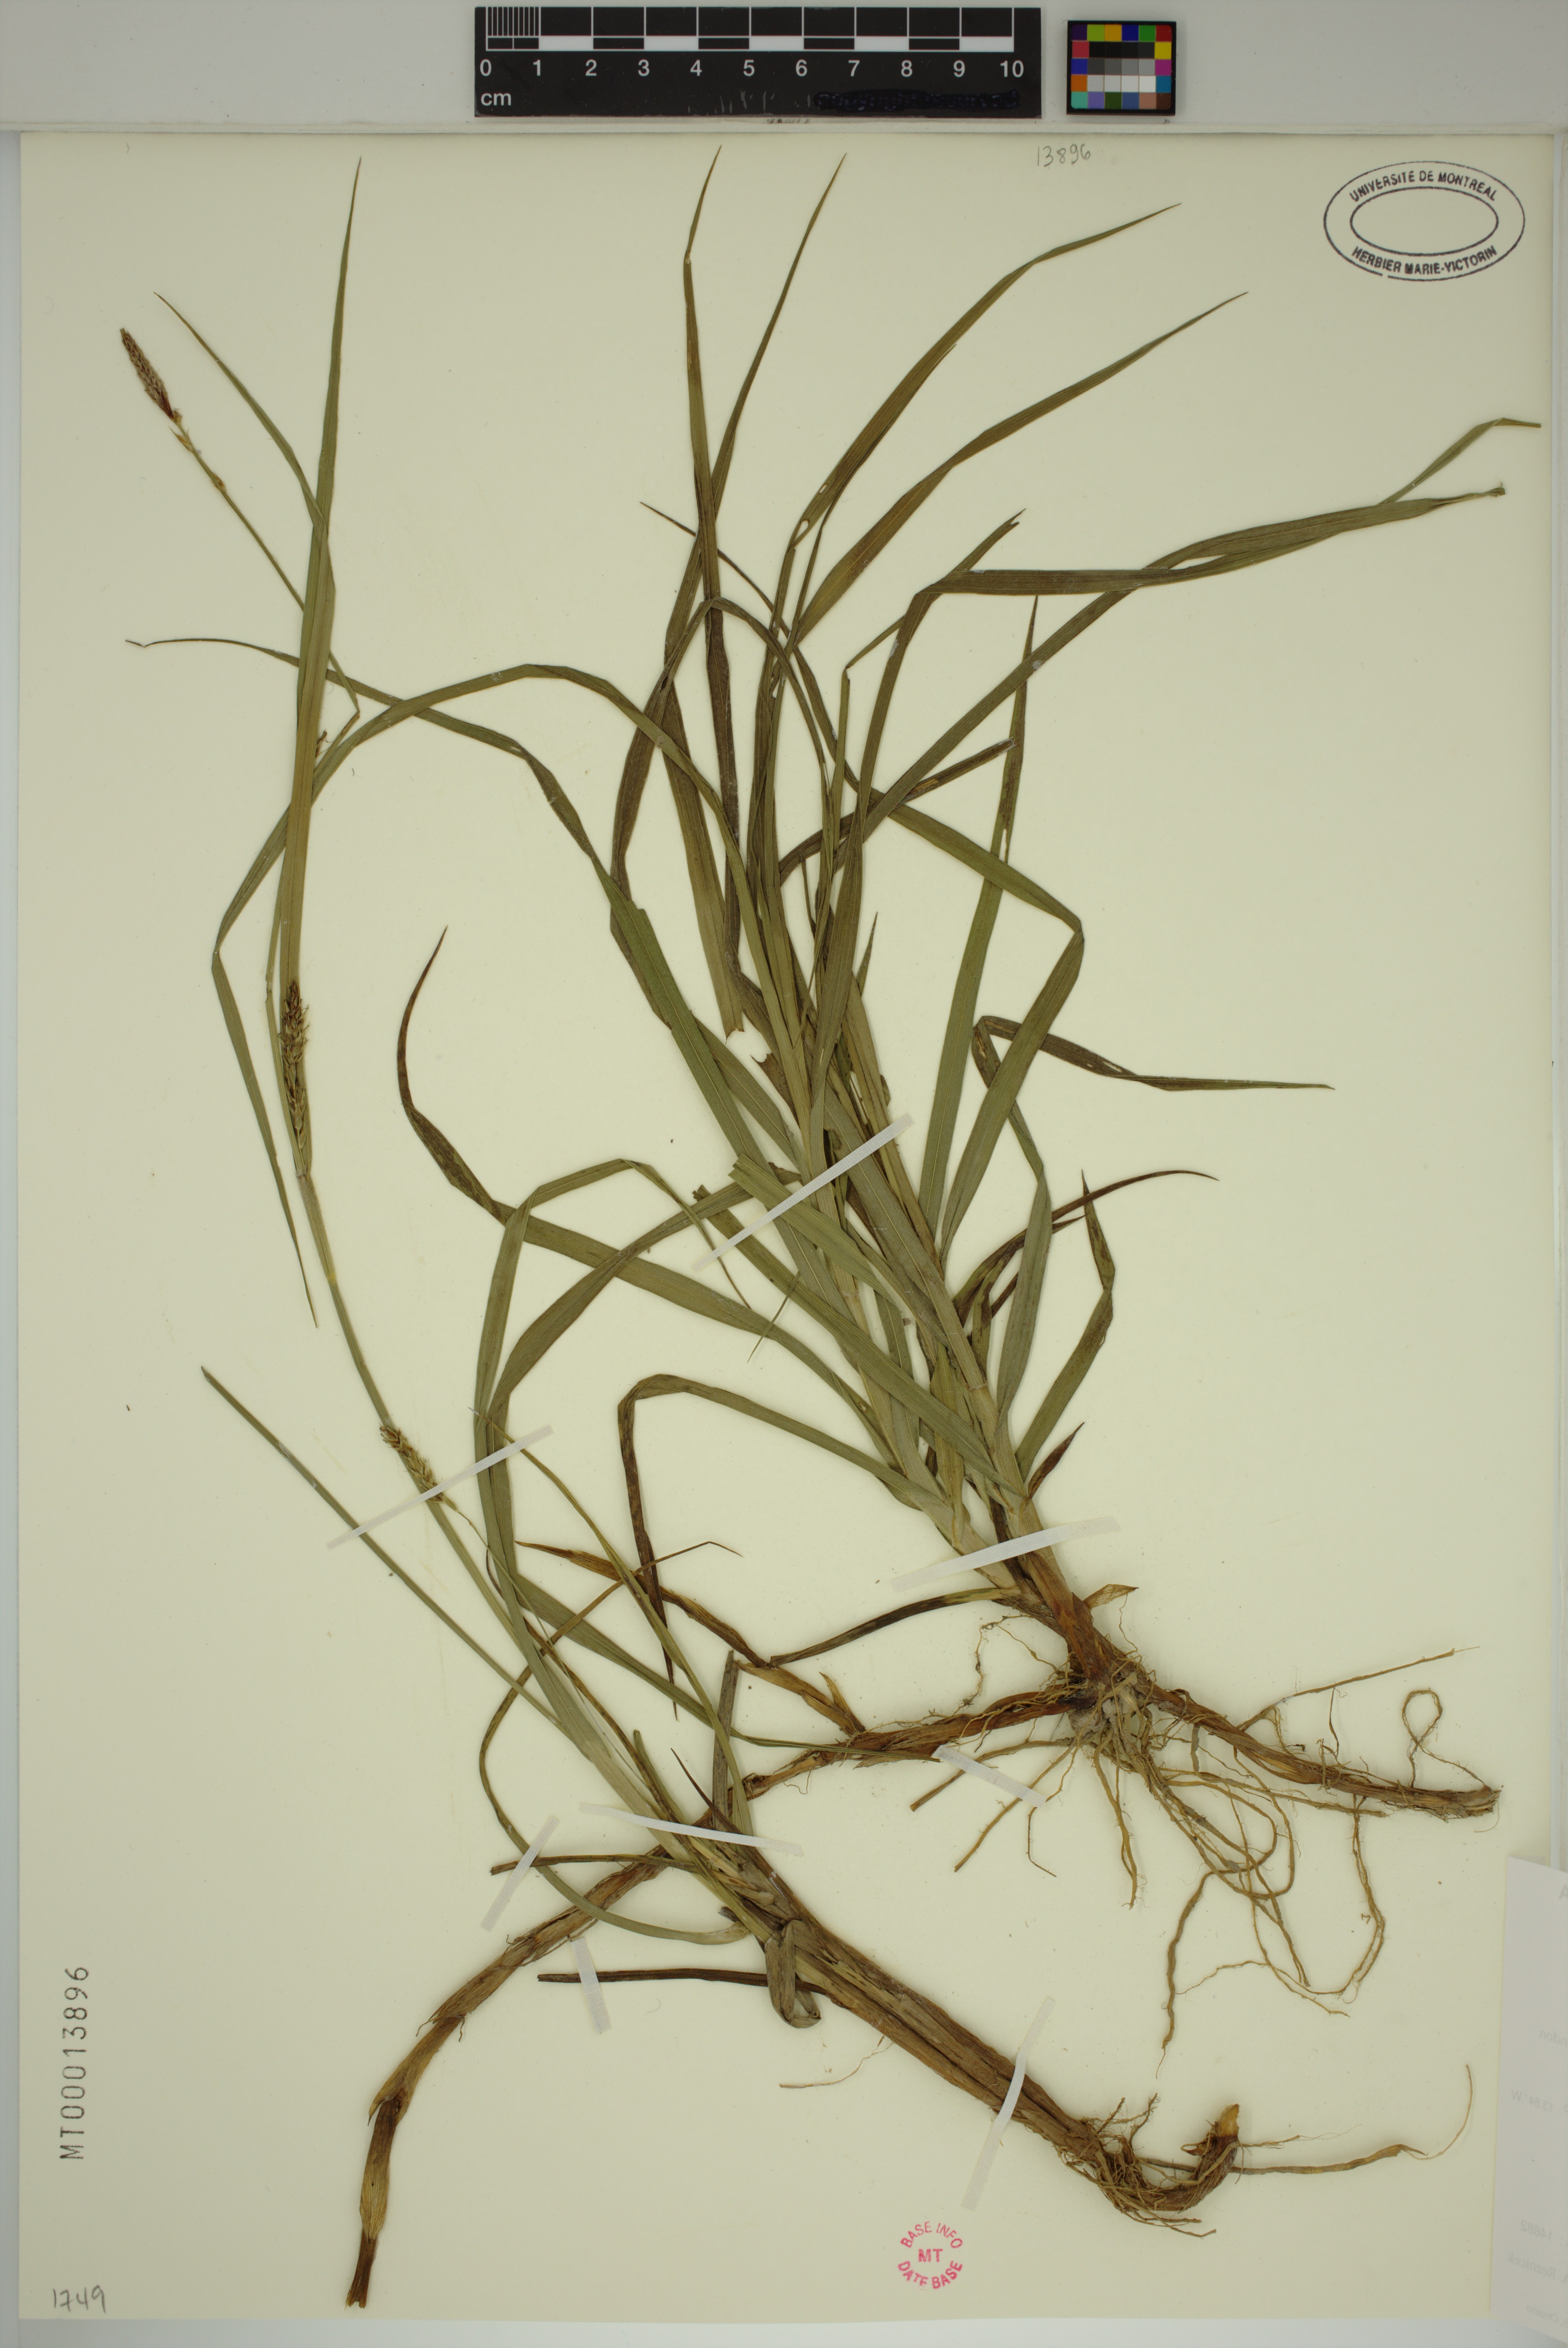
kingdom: Plantae
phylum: Tracheophyta
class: Liliopsida
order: Poales
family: Cyperaceae
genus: Carex
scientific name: Carex hirta
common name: Hairy sedge
